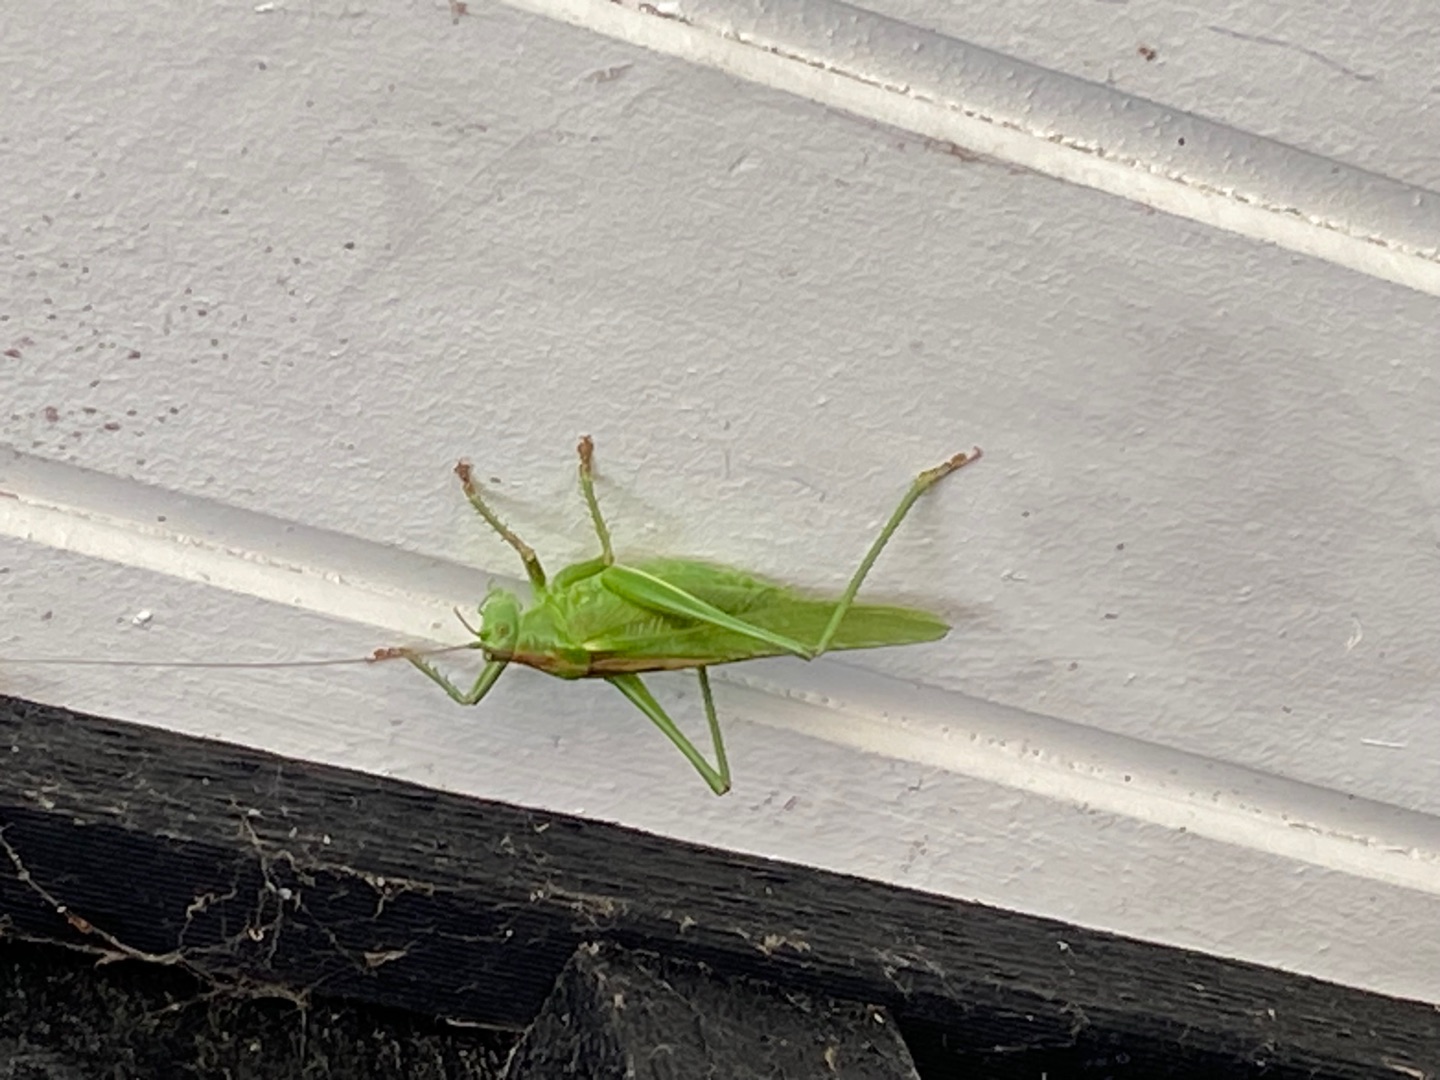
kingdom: Animalia
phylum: Arthropoda
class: Insecta
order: Orthoptera
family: Tettigoniidae
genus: Tettigonia
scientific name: Tettigonia viridissima
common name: Stor grøn løvgræshoppe
